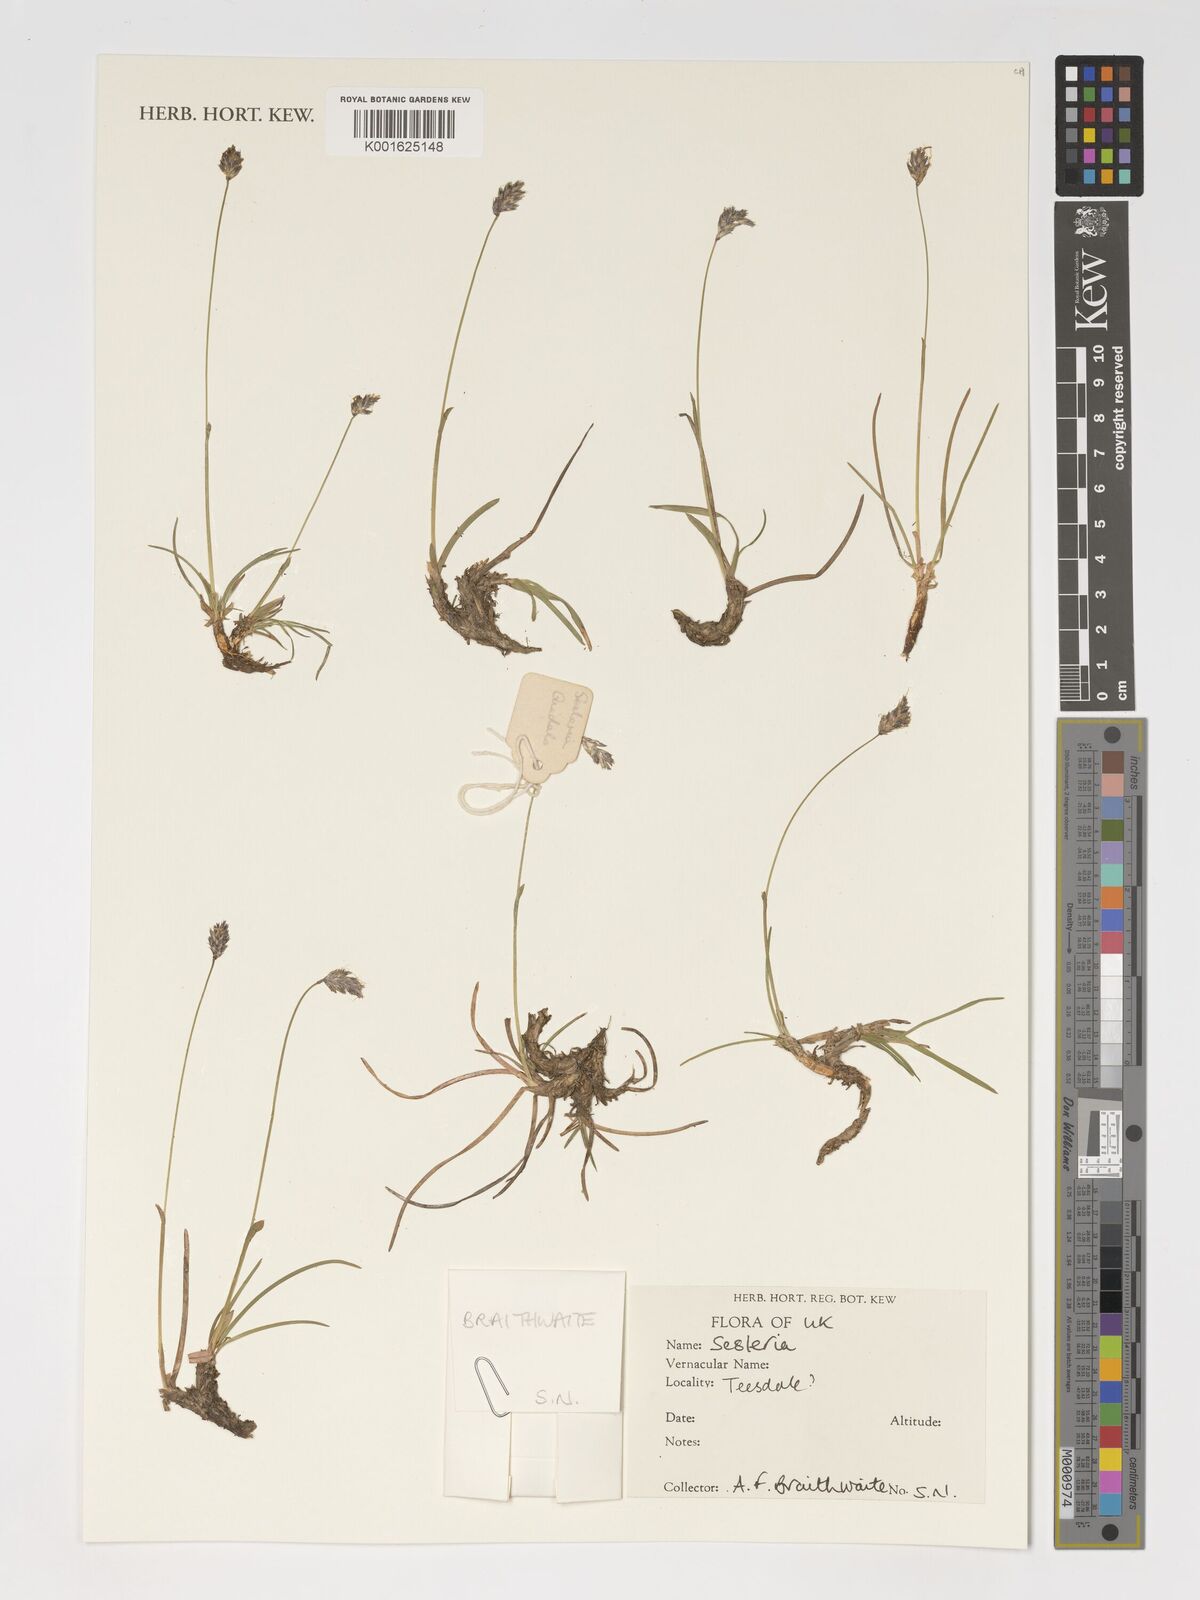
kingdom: Plantae
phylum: Tracheophyta
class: Liliopsida
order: Poales
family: Poaceae
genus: Sesleria
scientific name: Sesleria
